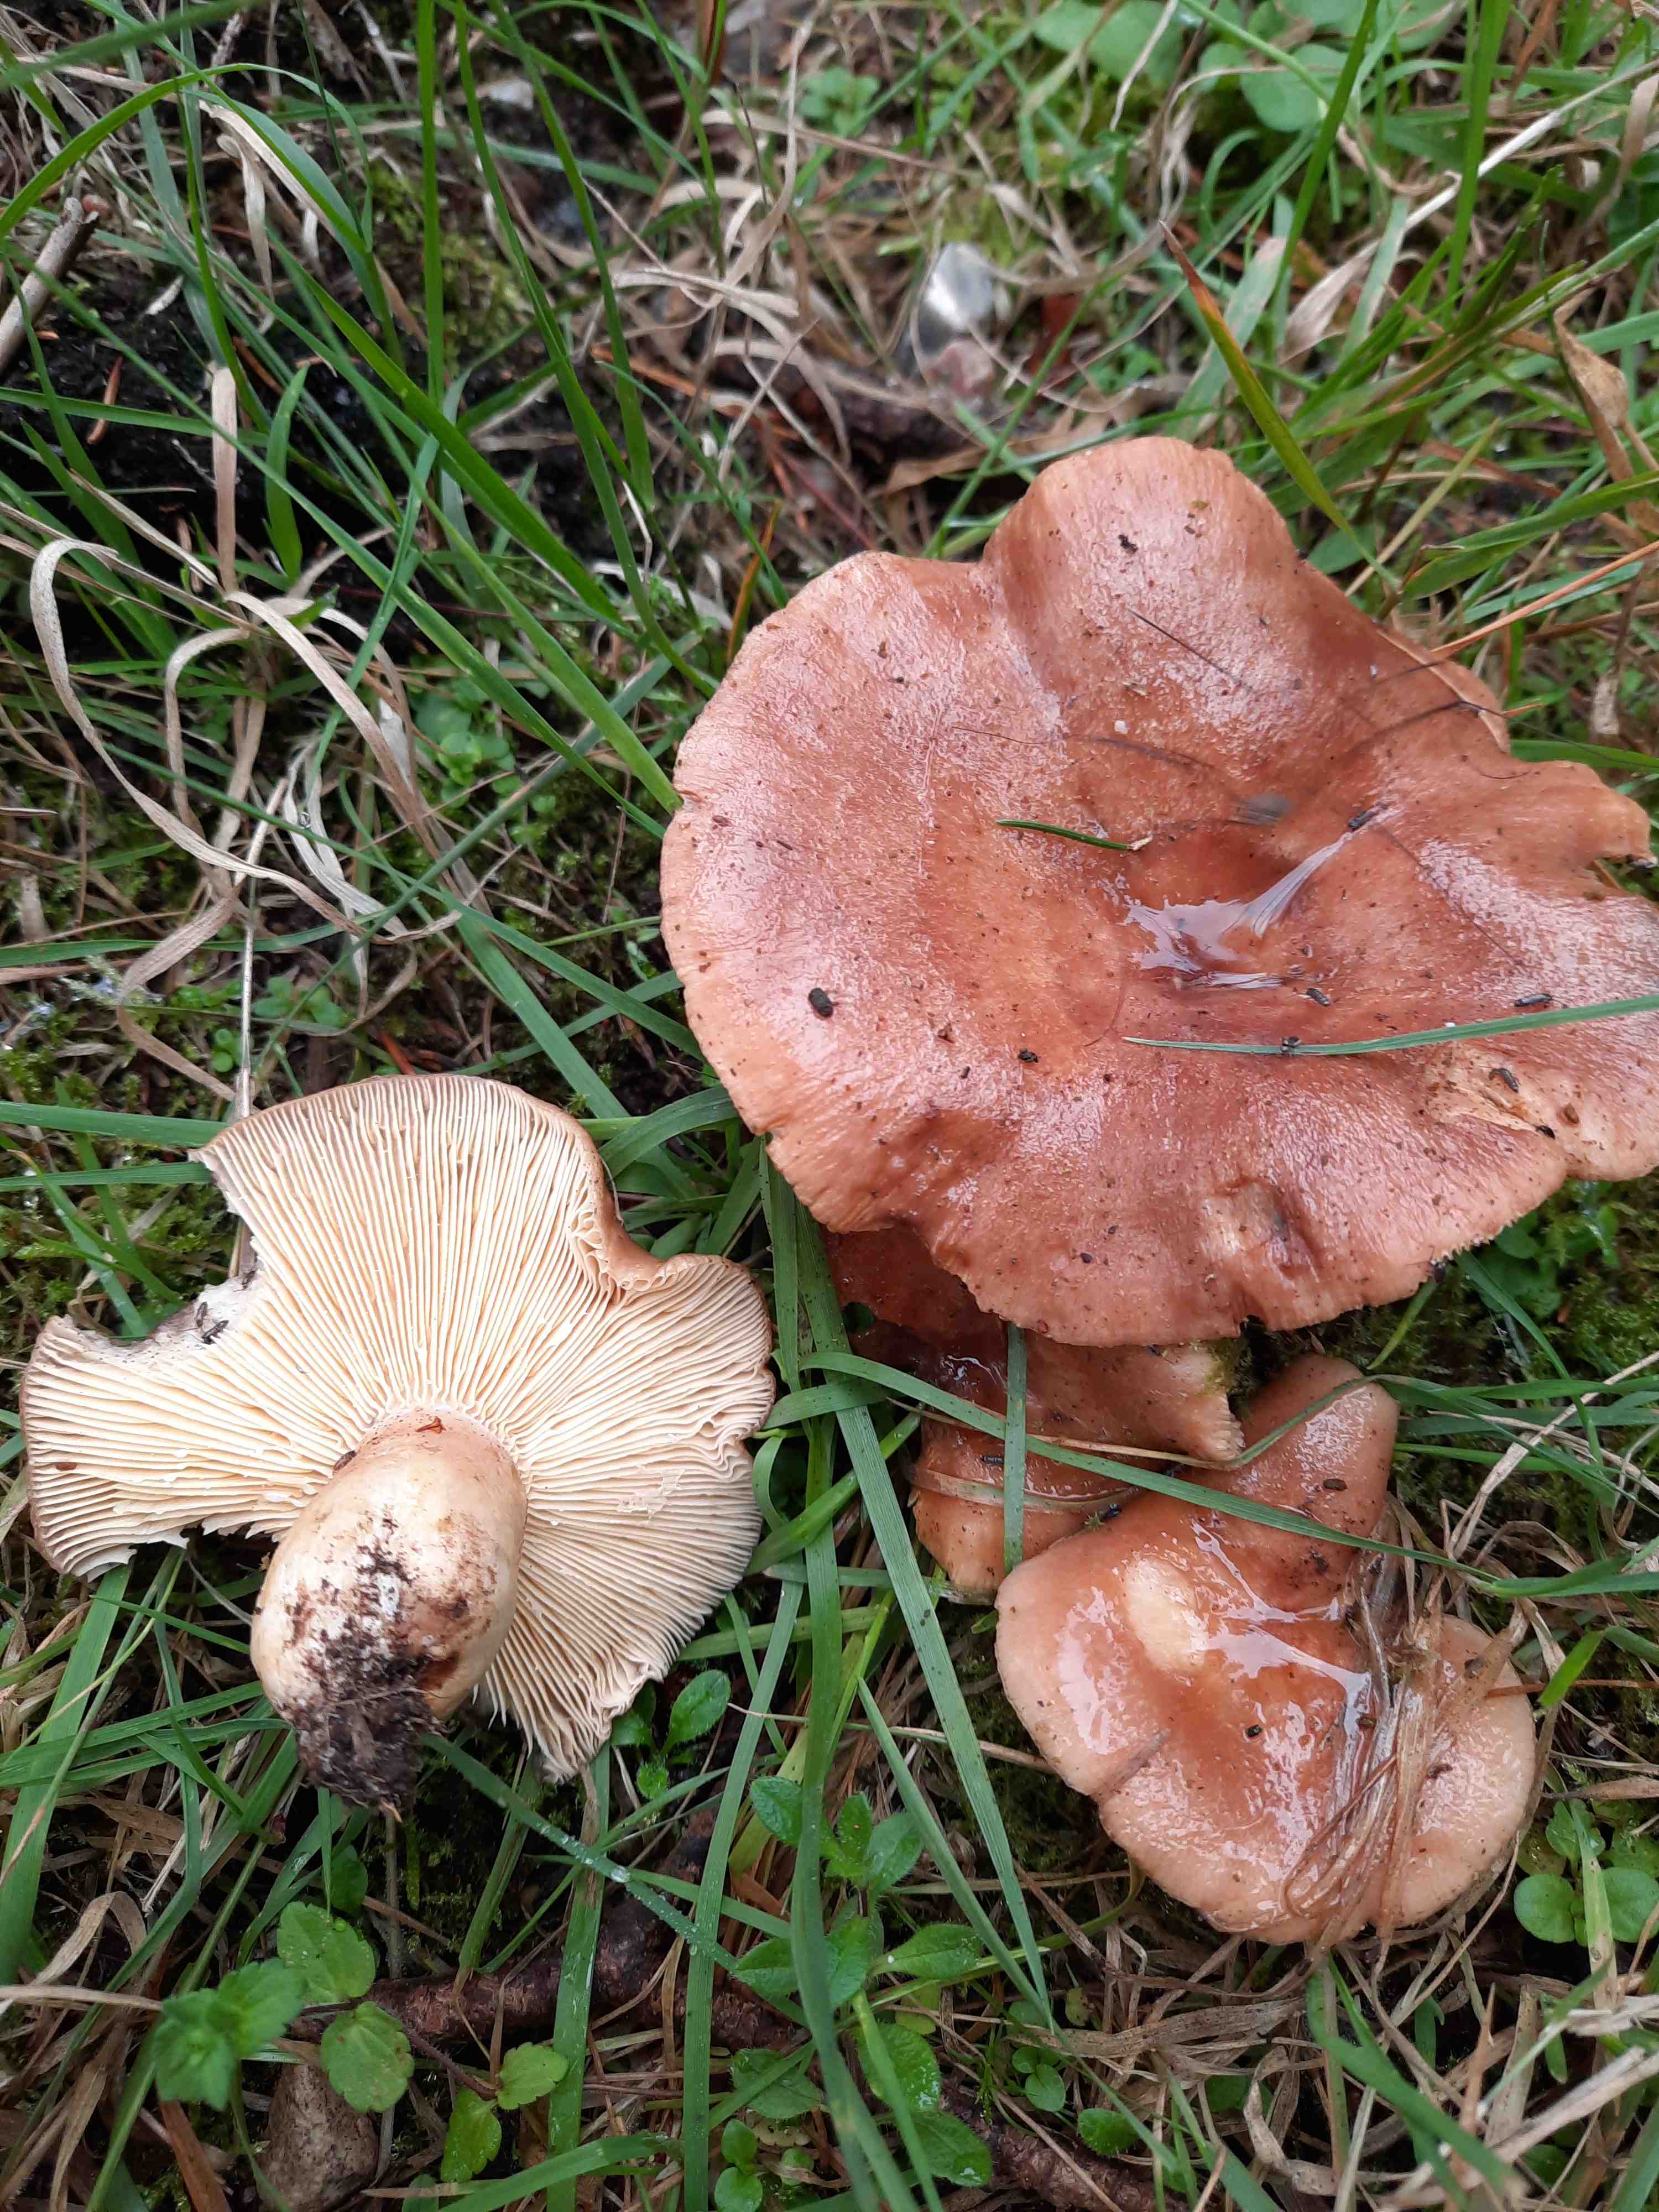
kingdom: Fungi
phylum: Basidiomycota
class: Agaricomycetes
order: Russulales
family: Russulaceae
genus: Lactarius
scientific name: Lactarius hysginus
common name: teglfarvet mælkehat
